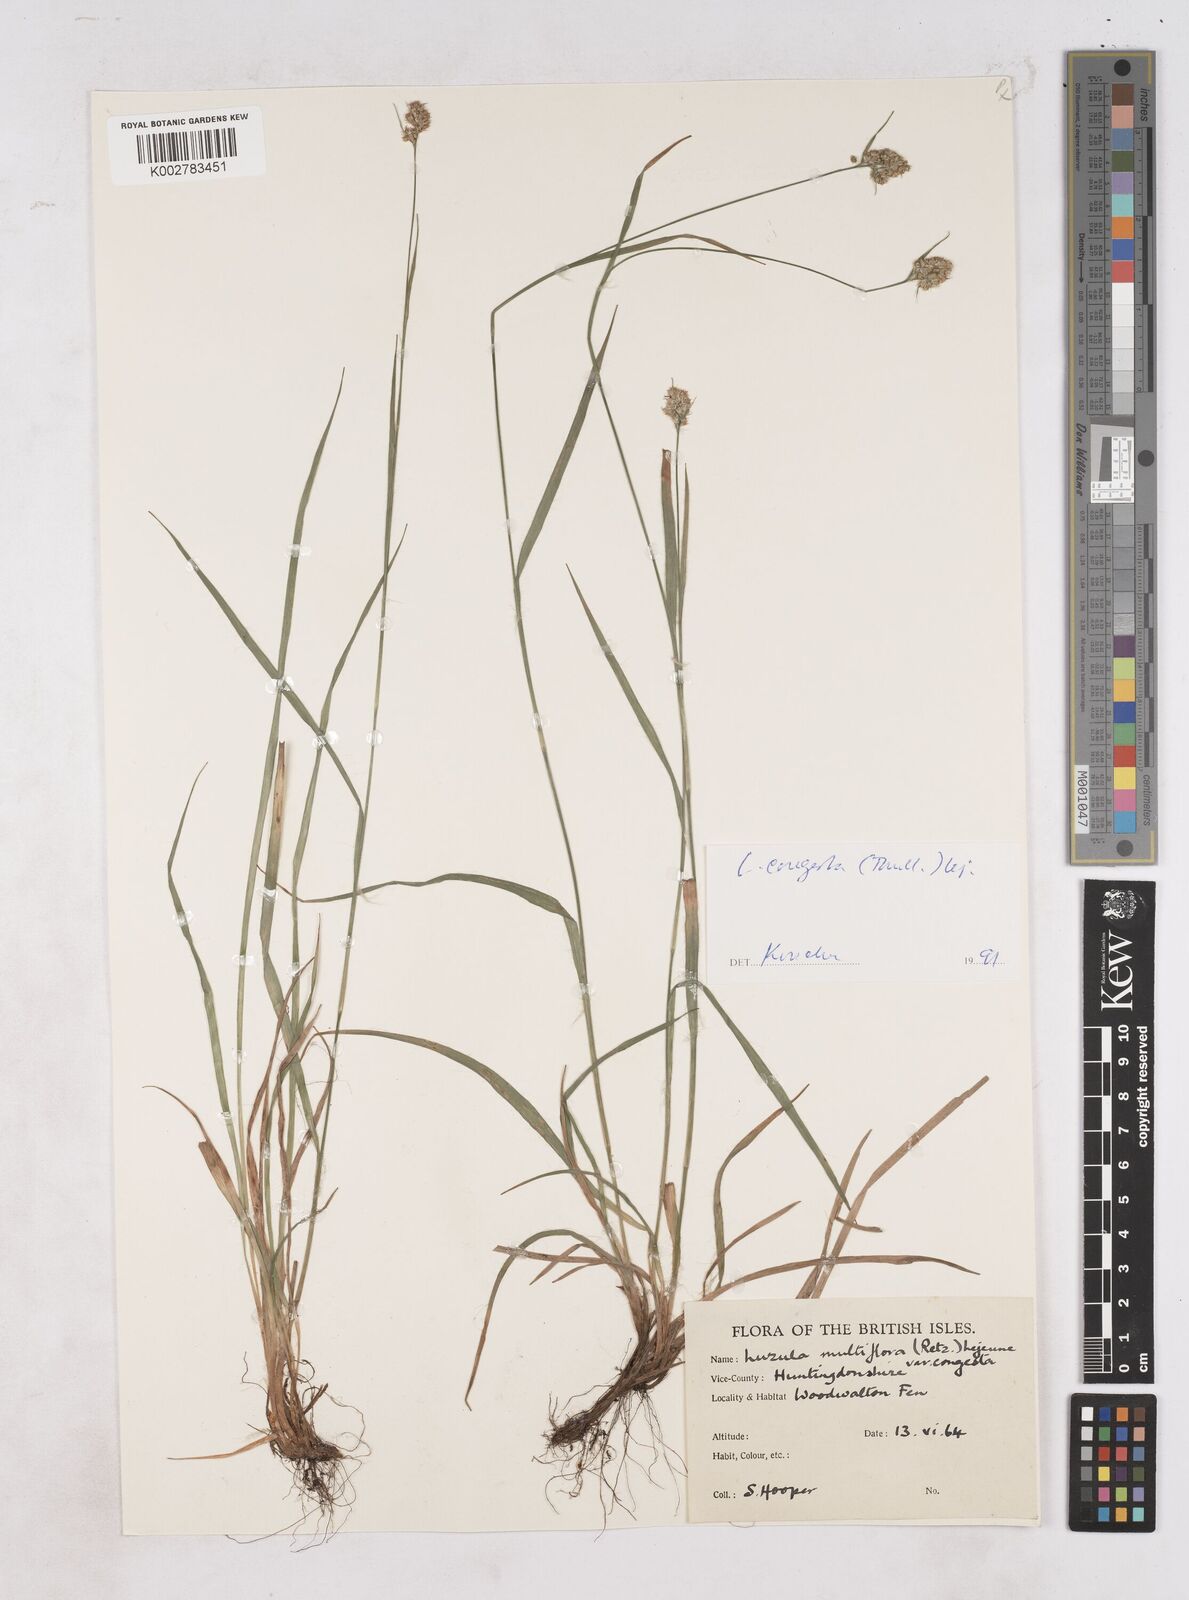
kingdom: Plantae
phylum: Tracheophyta
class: Liliopsida
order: Poales
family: Juncaceae
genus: Luzula
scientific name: Luzula campestris
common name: Field wood-rush
